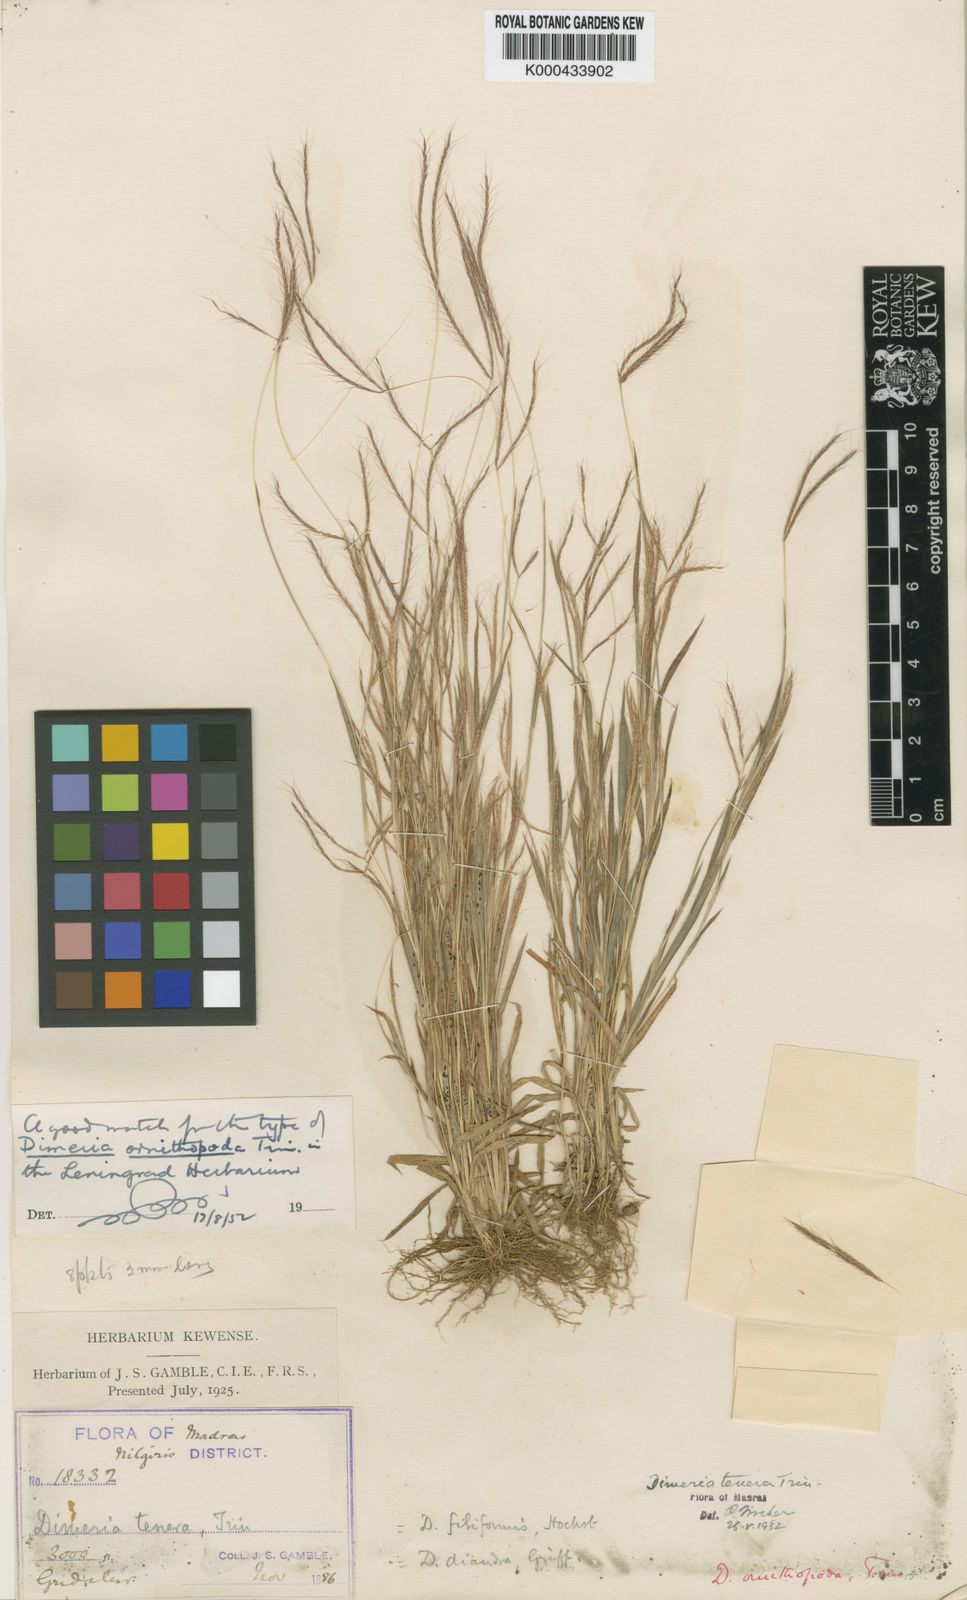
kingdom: Plantae
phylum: Tracheophyta
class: Liliopsida
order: Poales
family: Poaceae
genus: Dimeria
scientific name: Dimeria ornithopoda
